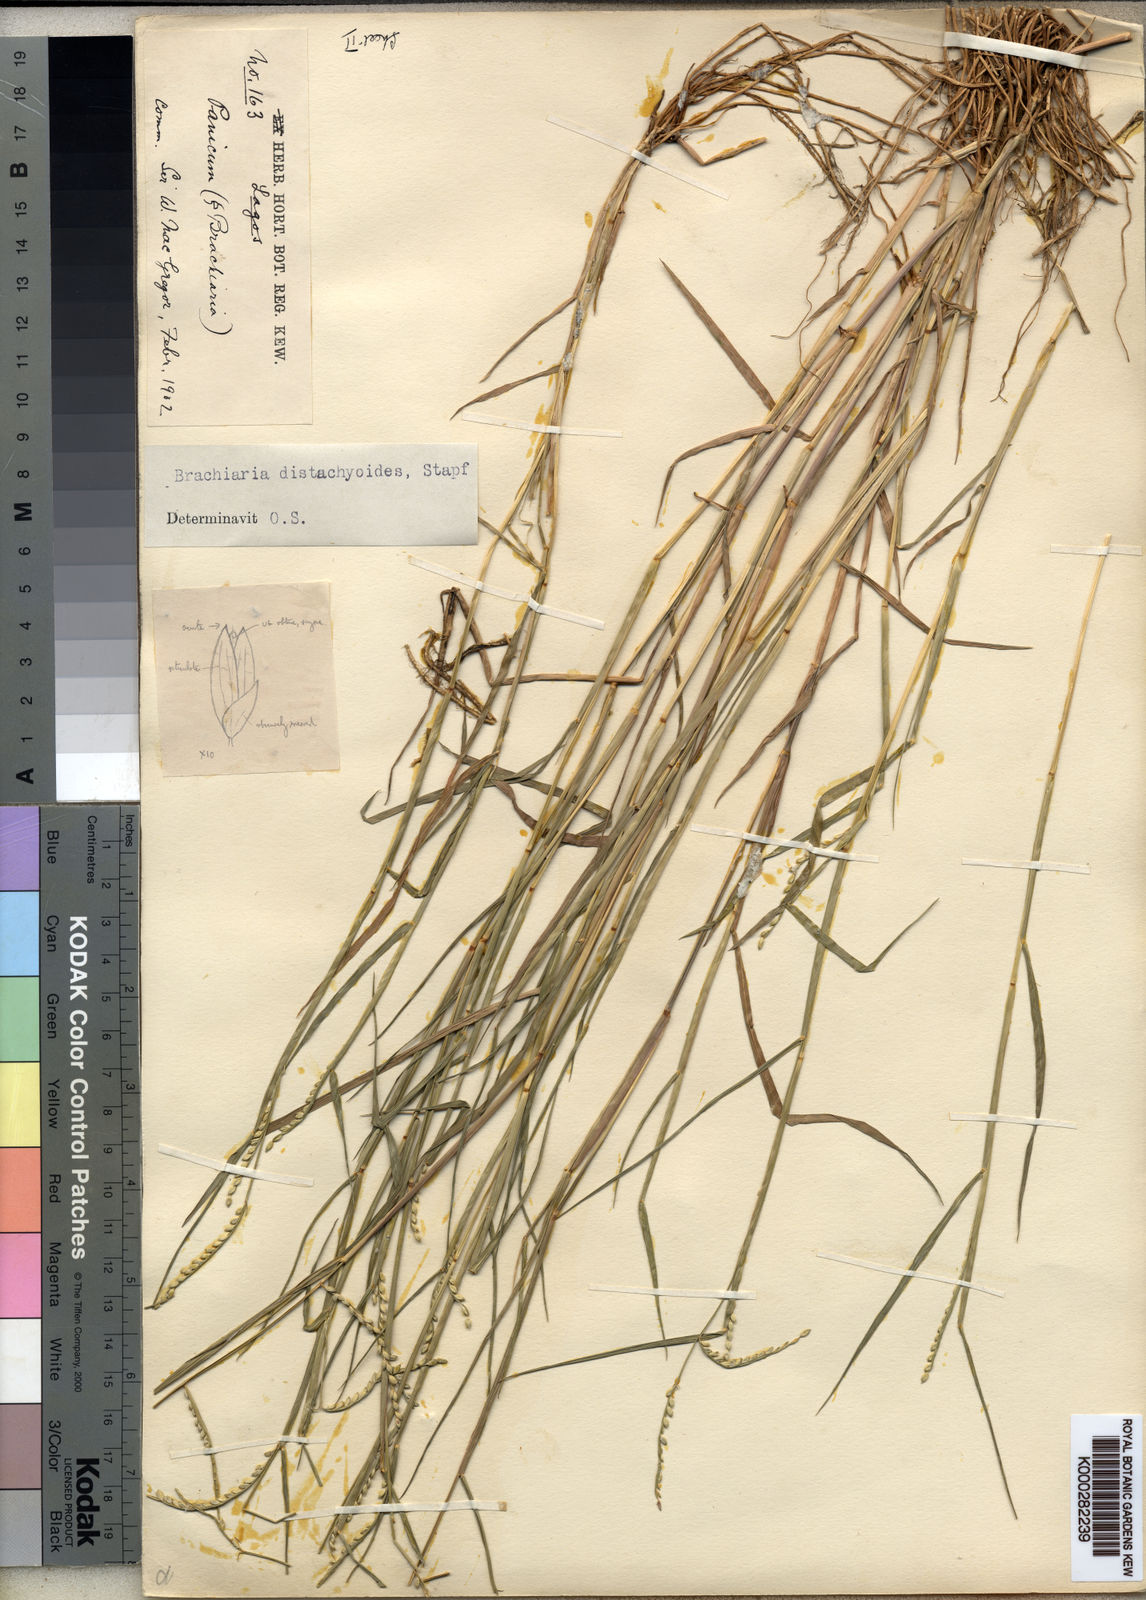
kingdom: Plantae
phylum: Tracheophyta
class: Liliopsida
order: Poales
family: Poaceae
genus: Urochloa
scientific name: Urochloa distachyoides
